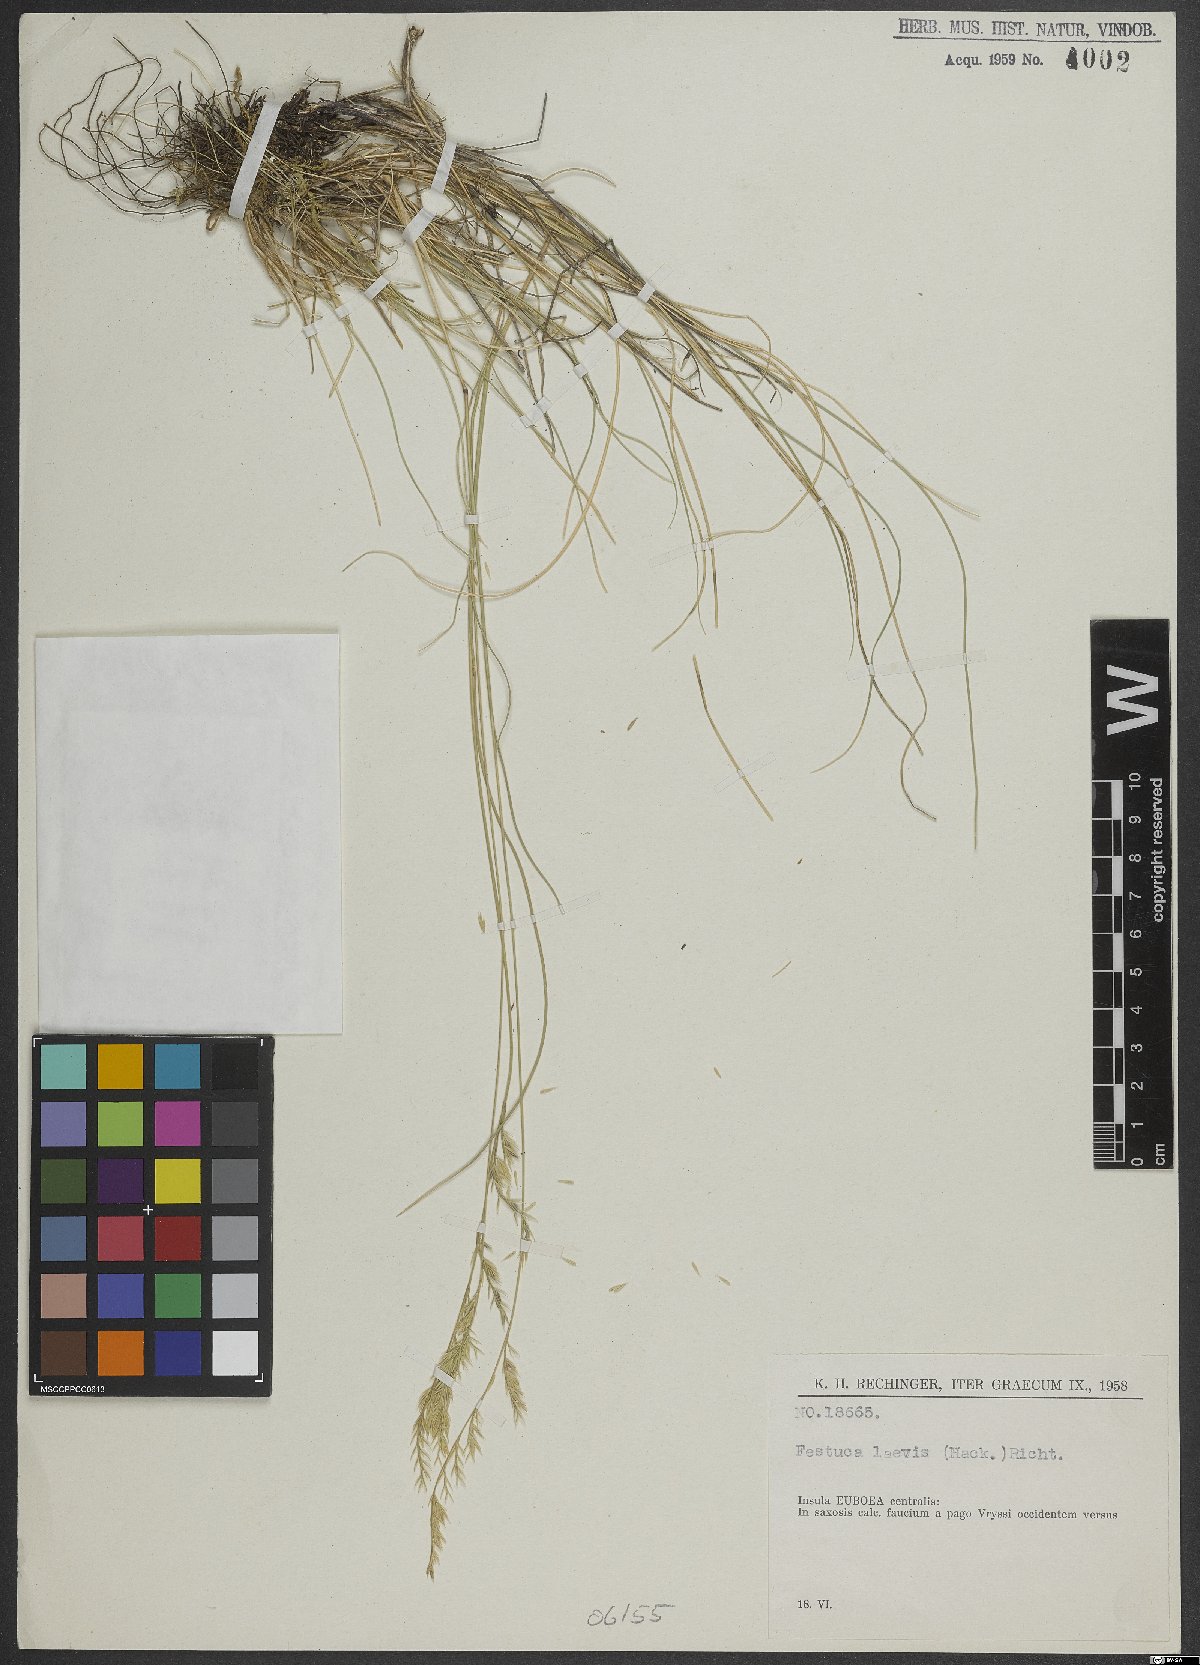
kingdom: Plantae
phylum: Tracheophyta
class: Liliopsida
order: Poales
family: Poaceae
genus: Festuca
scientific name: Festuca circummediterranea
